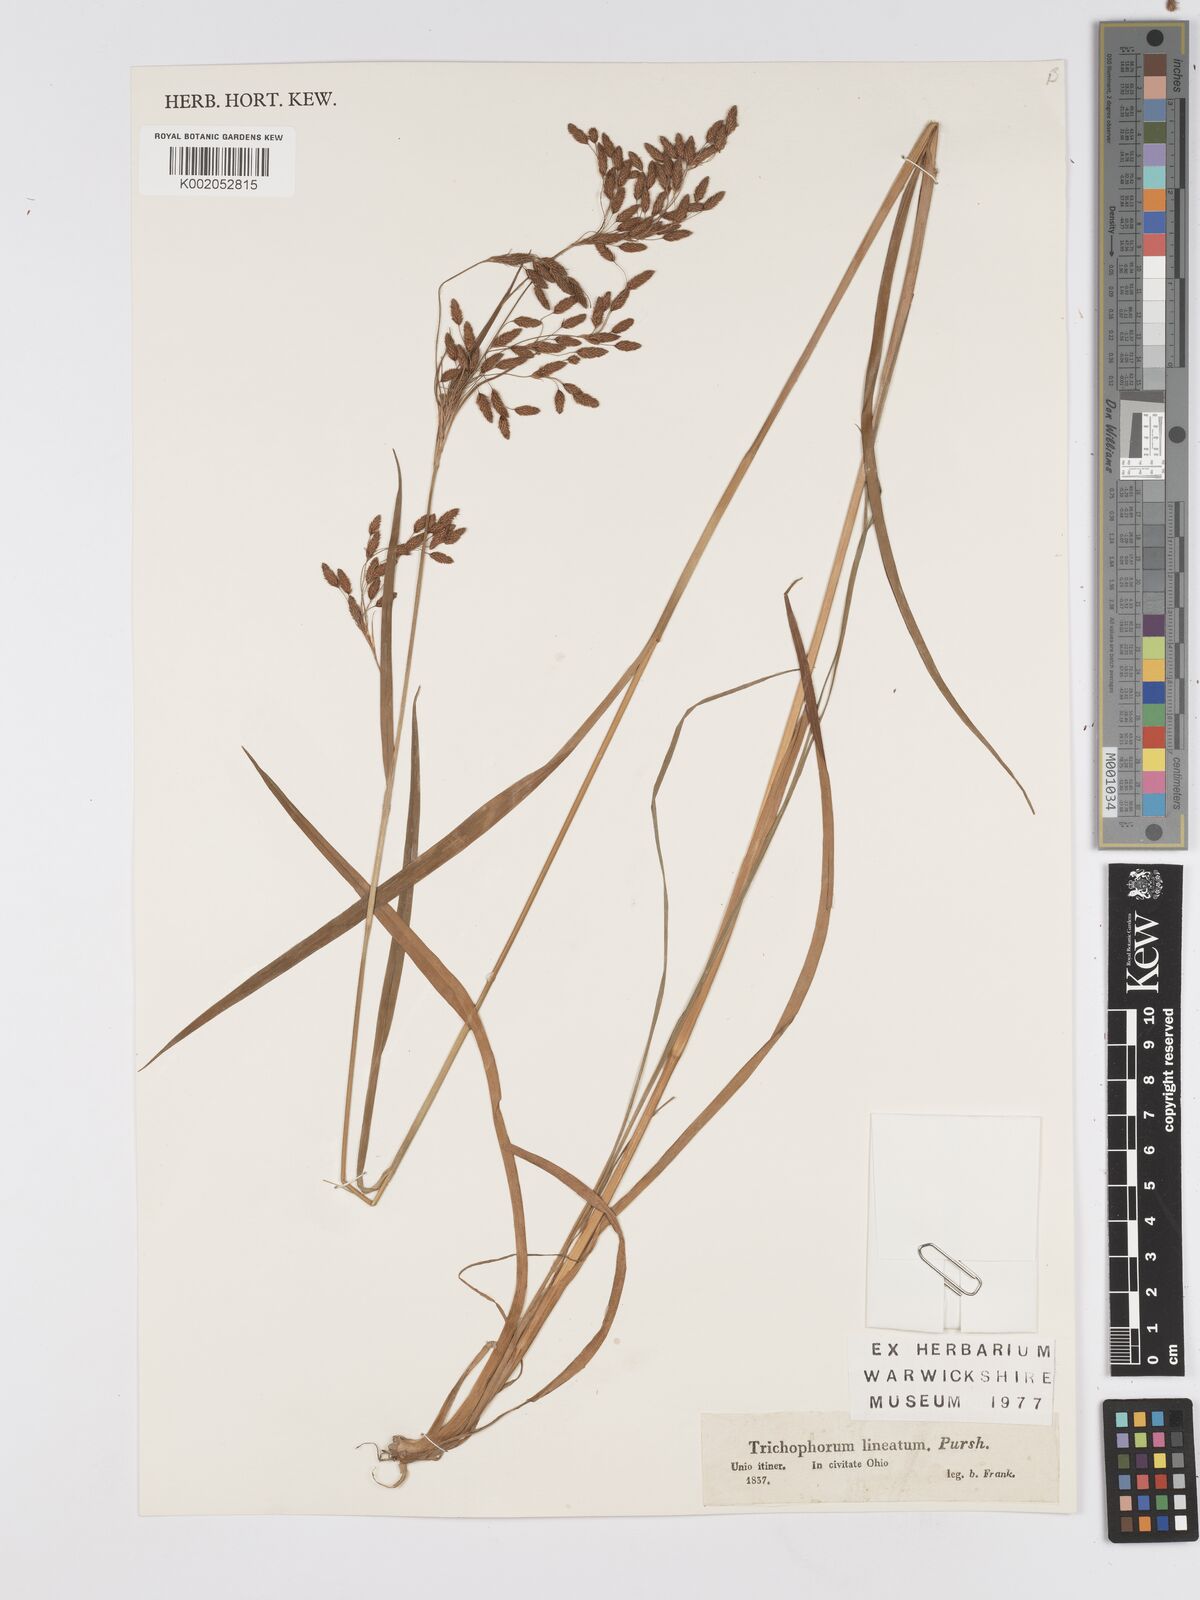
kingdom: Plantae
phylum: Tracheophyta
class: Liliopsida
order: Poales
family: Cyperaceae
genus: Scirpus
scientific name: Scirpus lineatus
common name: Drooping bulrush
